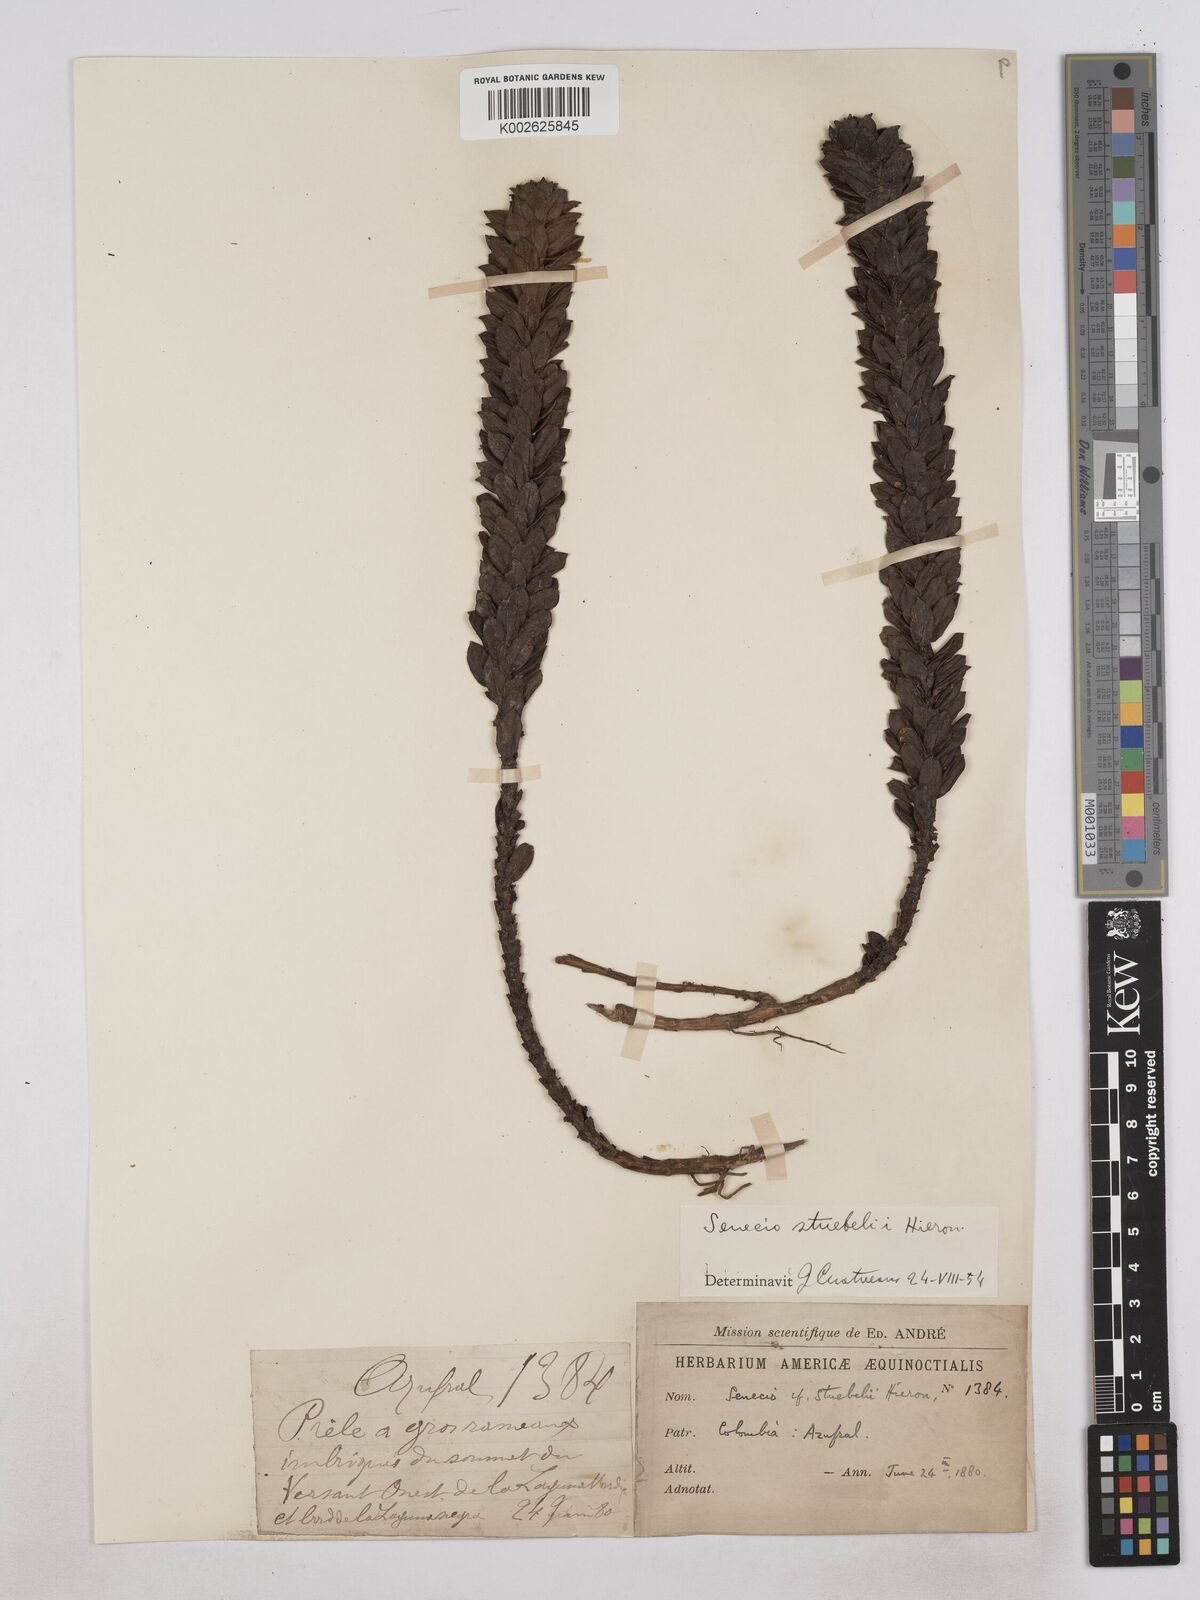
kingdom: Plantae
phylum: Tracheophyta
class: Magnoliopsida
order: Asterales
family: Asteraceae
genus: Monticalia
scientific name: Monticalia stuebelii
